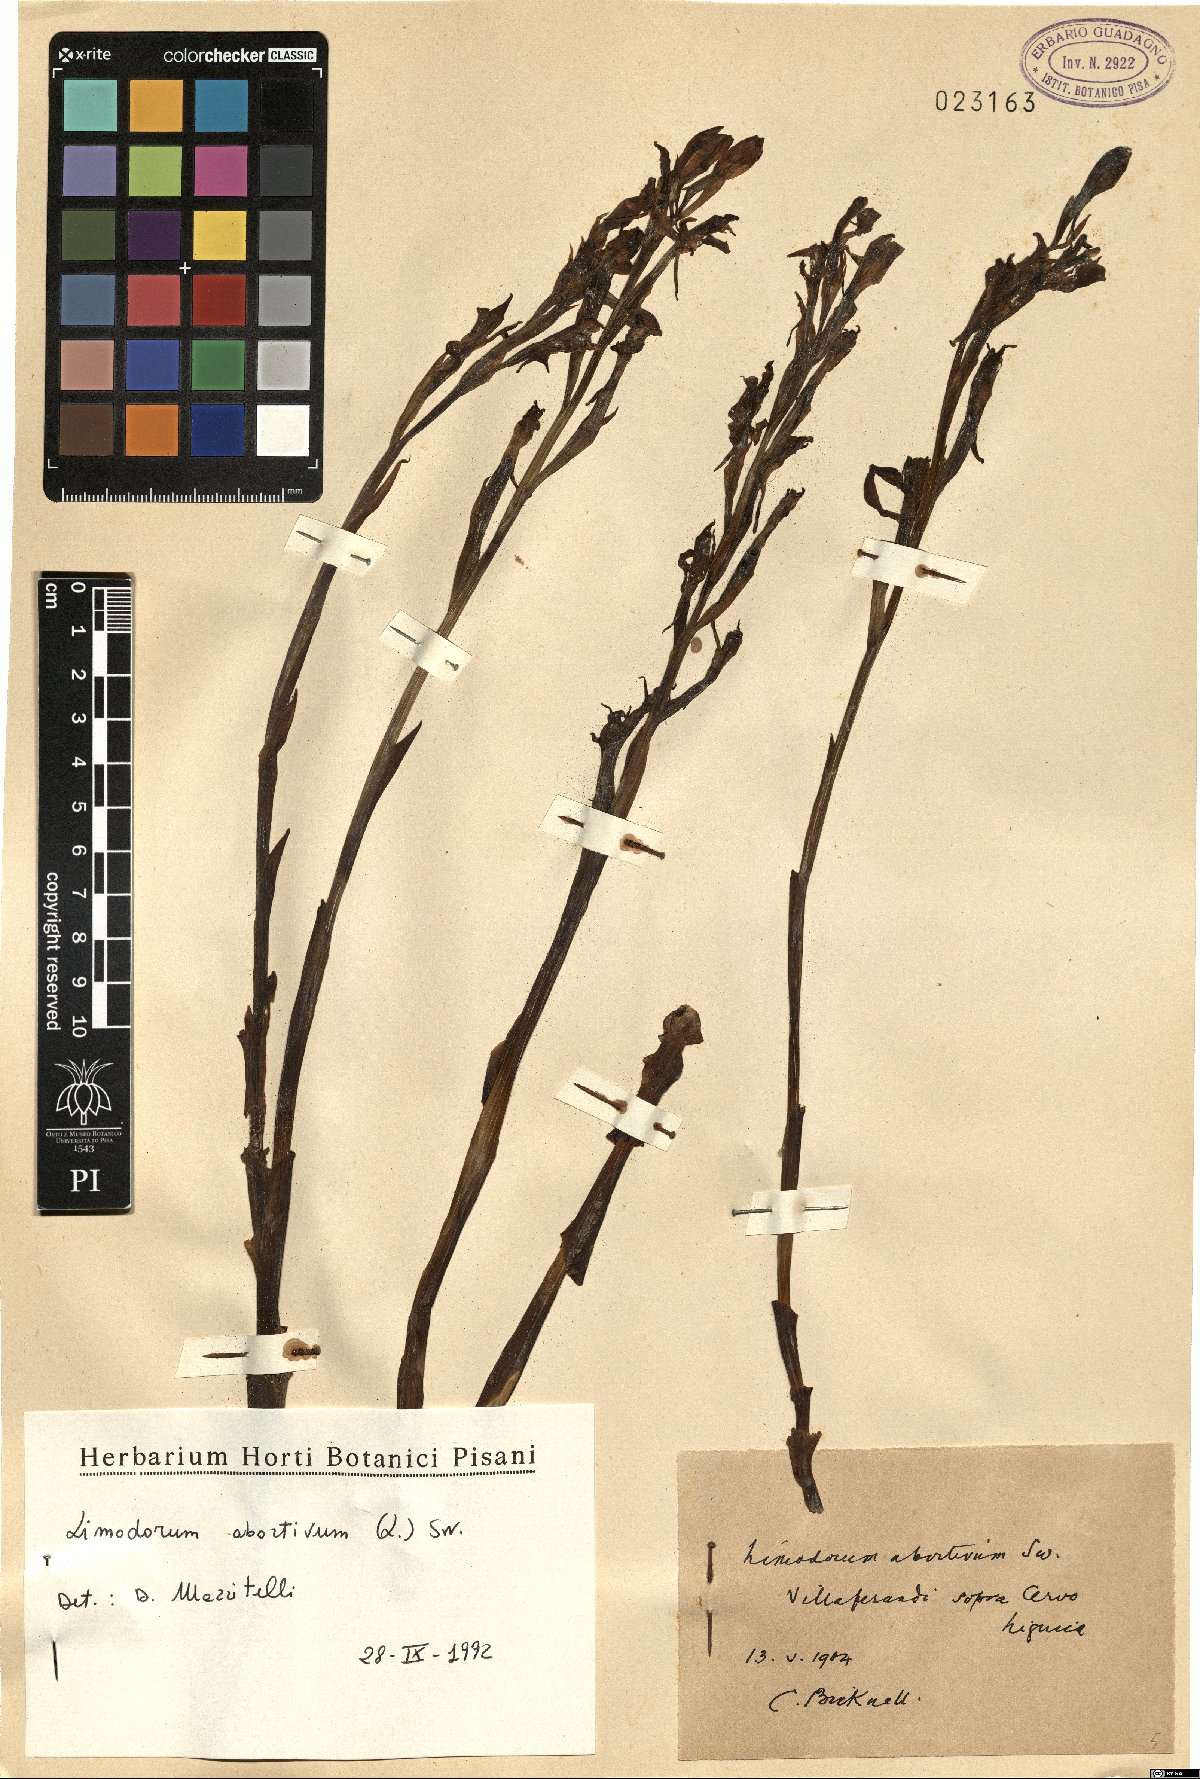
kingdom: Plantae
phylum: Tracheophyta
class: Liliopsida
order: Asparagales
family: Orchidaceae
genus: Limodorum
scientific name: Limodorum abortivum
